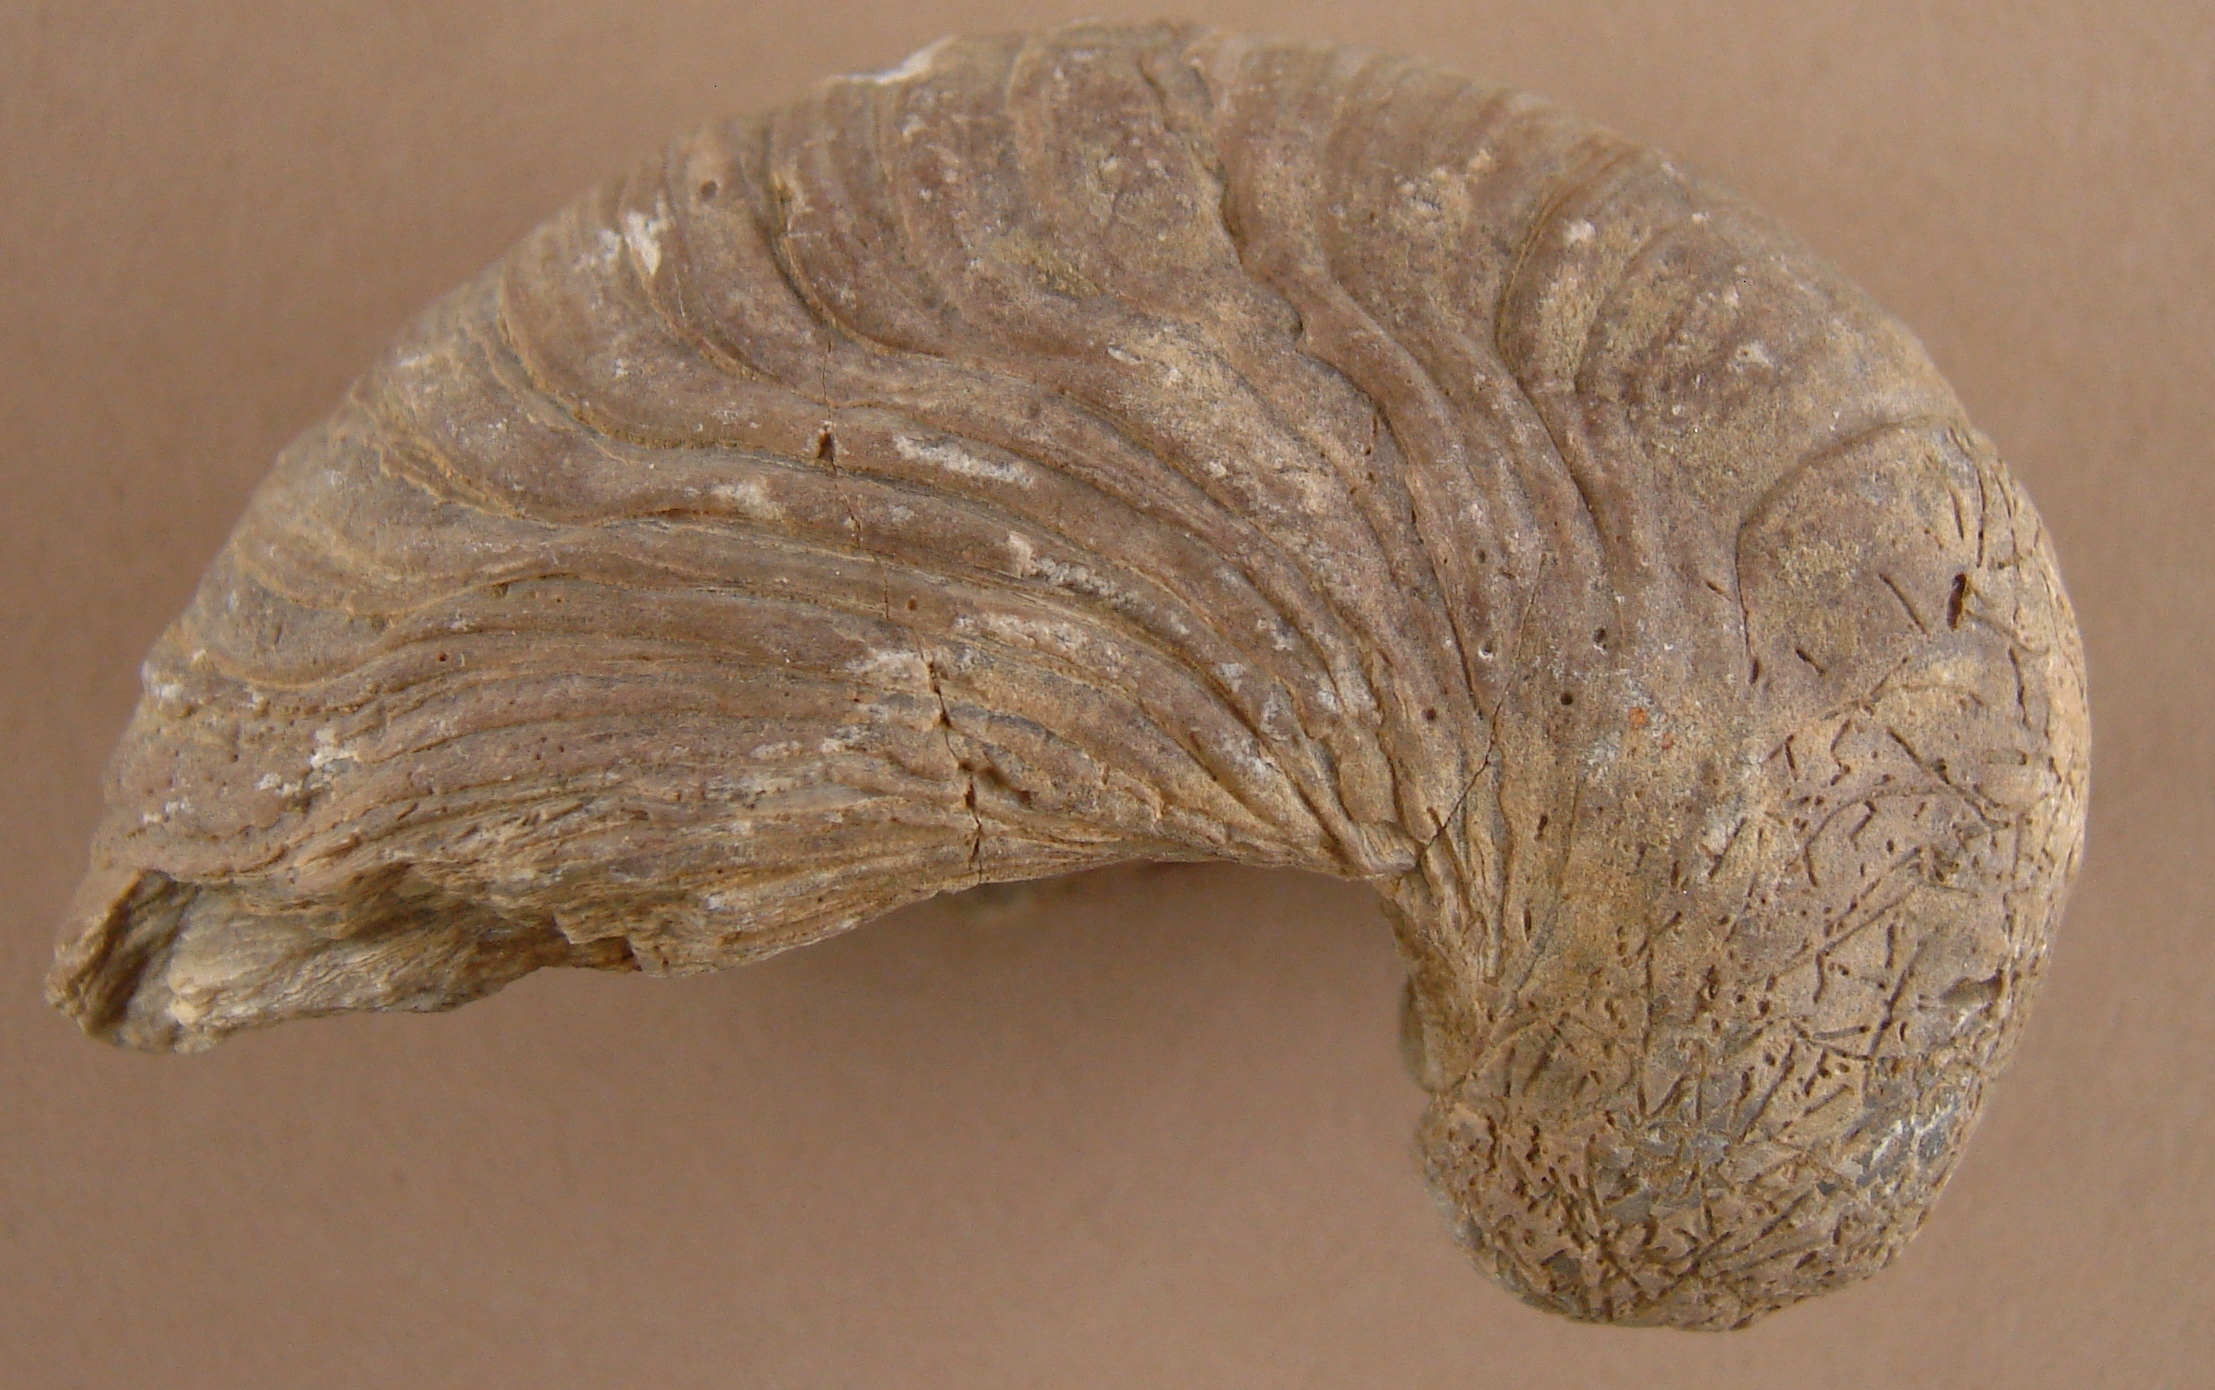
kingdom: Animalia
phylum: Mollusca
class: Bivalvia
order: Ostreida
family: Gryphaeidae
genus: Gryphaea
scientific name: Gryphaea arcuata
